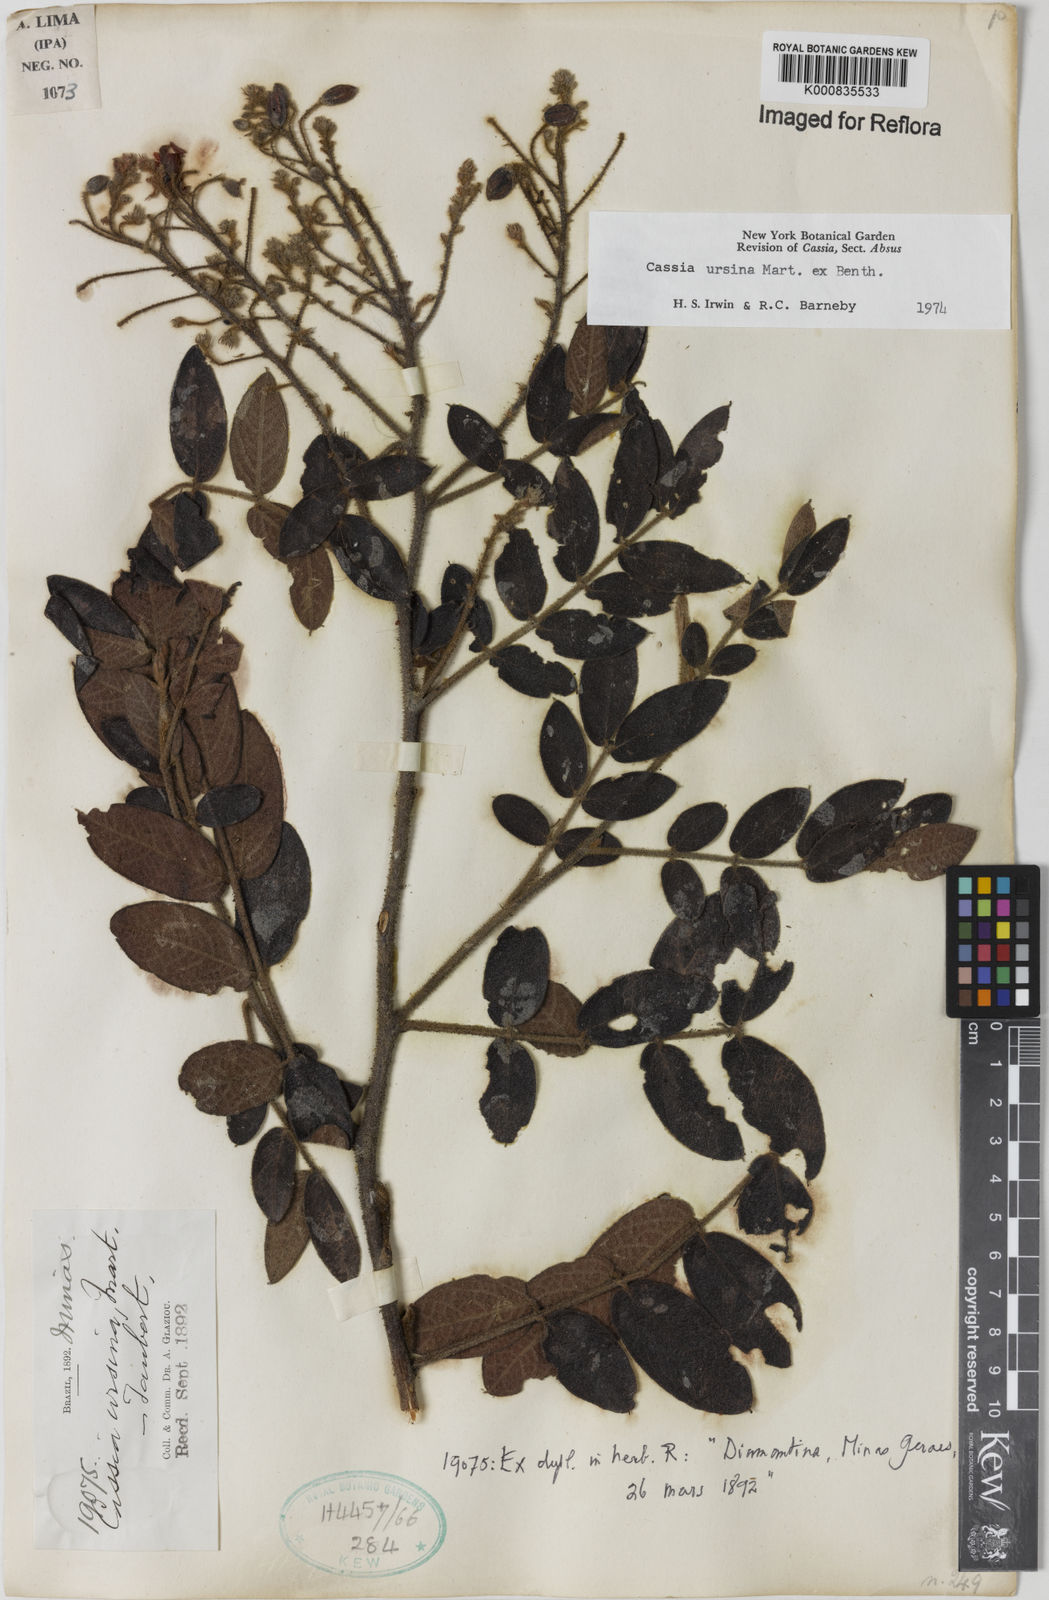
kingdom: Plantae
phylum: Tracheophyta
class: Magnoliopsida
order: Fabales
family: Fabaceae
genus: Chamaecrista
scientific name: Chamaecrista ursina
